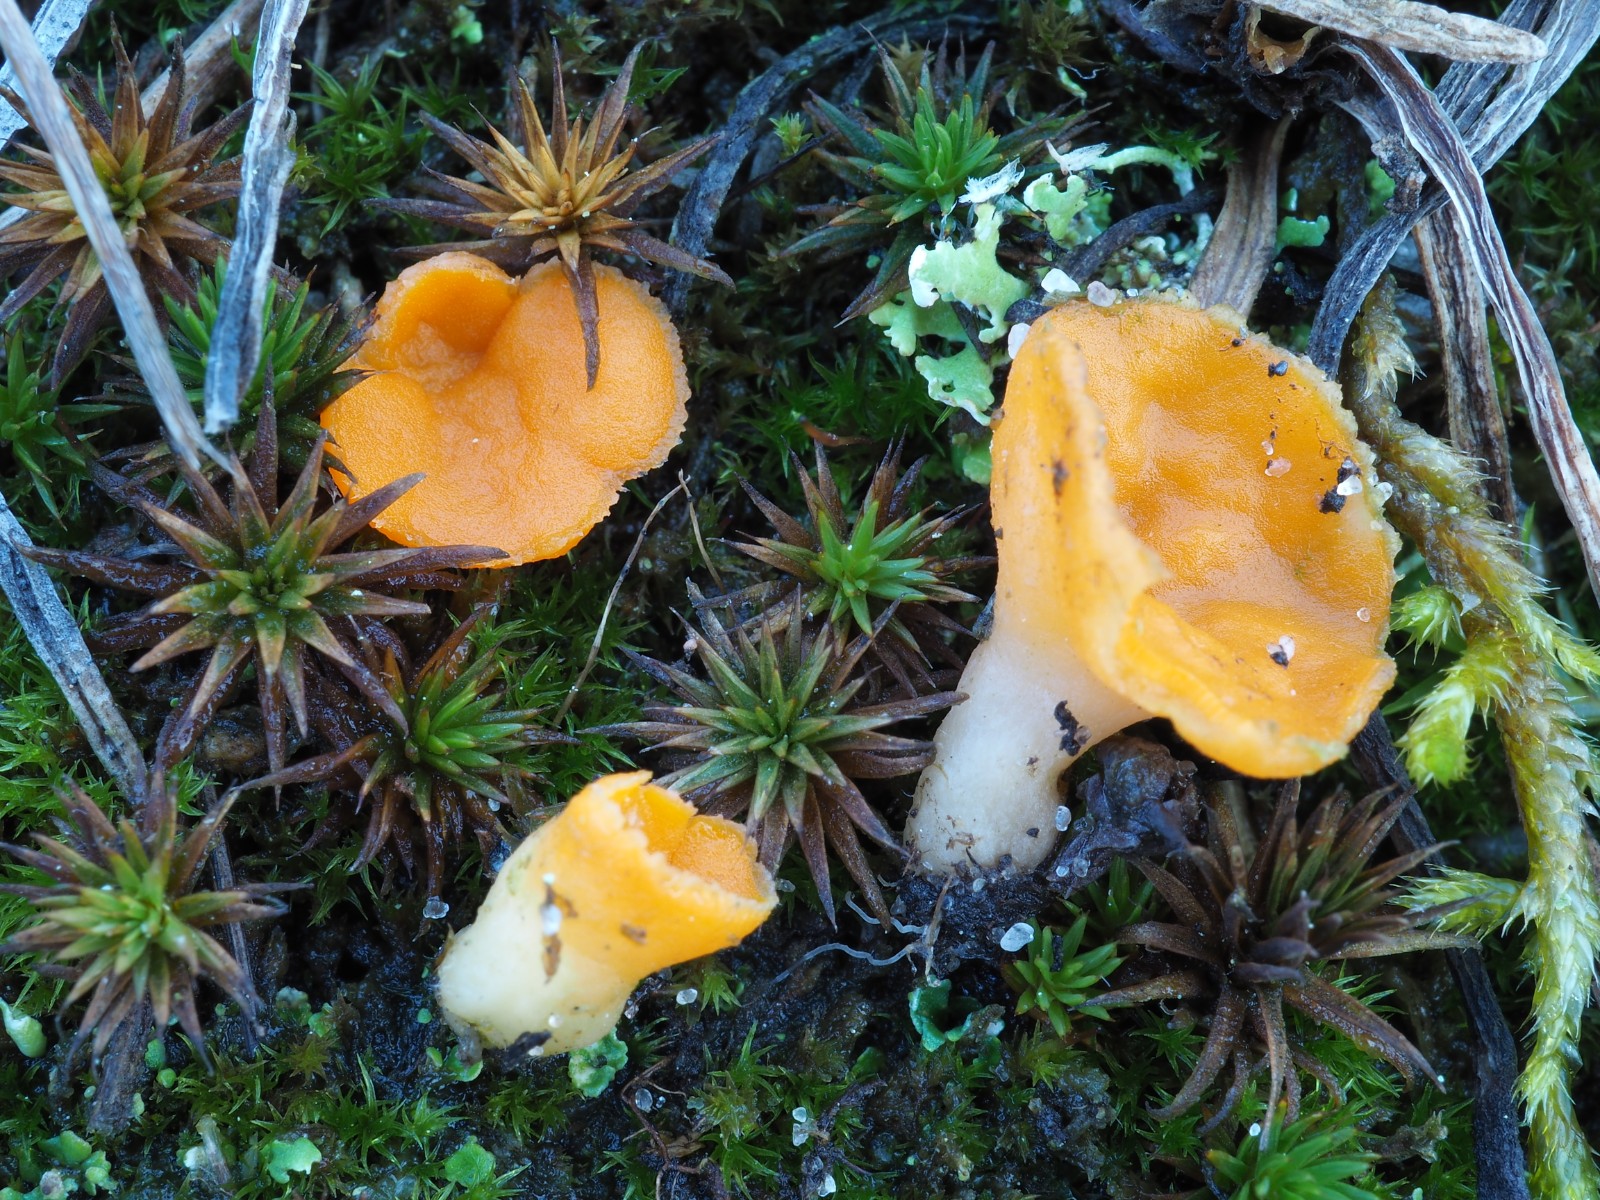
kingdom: Fungi
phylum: Ascomycota
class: Pezizomycetes
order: Pezizales
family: Pyronemataceae
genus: Neottiella
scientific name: Neottiella rutilans
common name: jomfruhår-mosbæger
